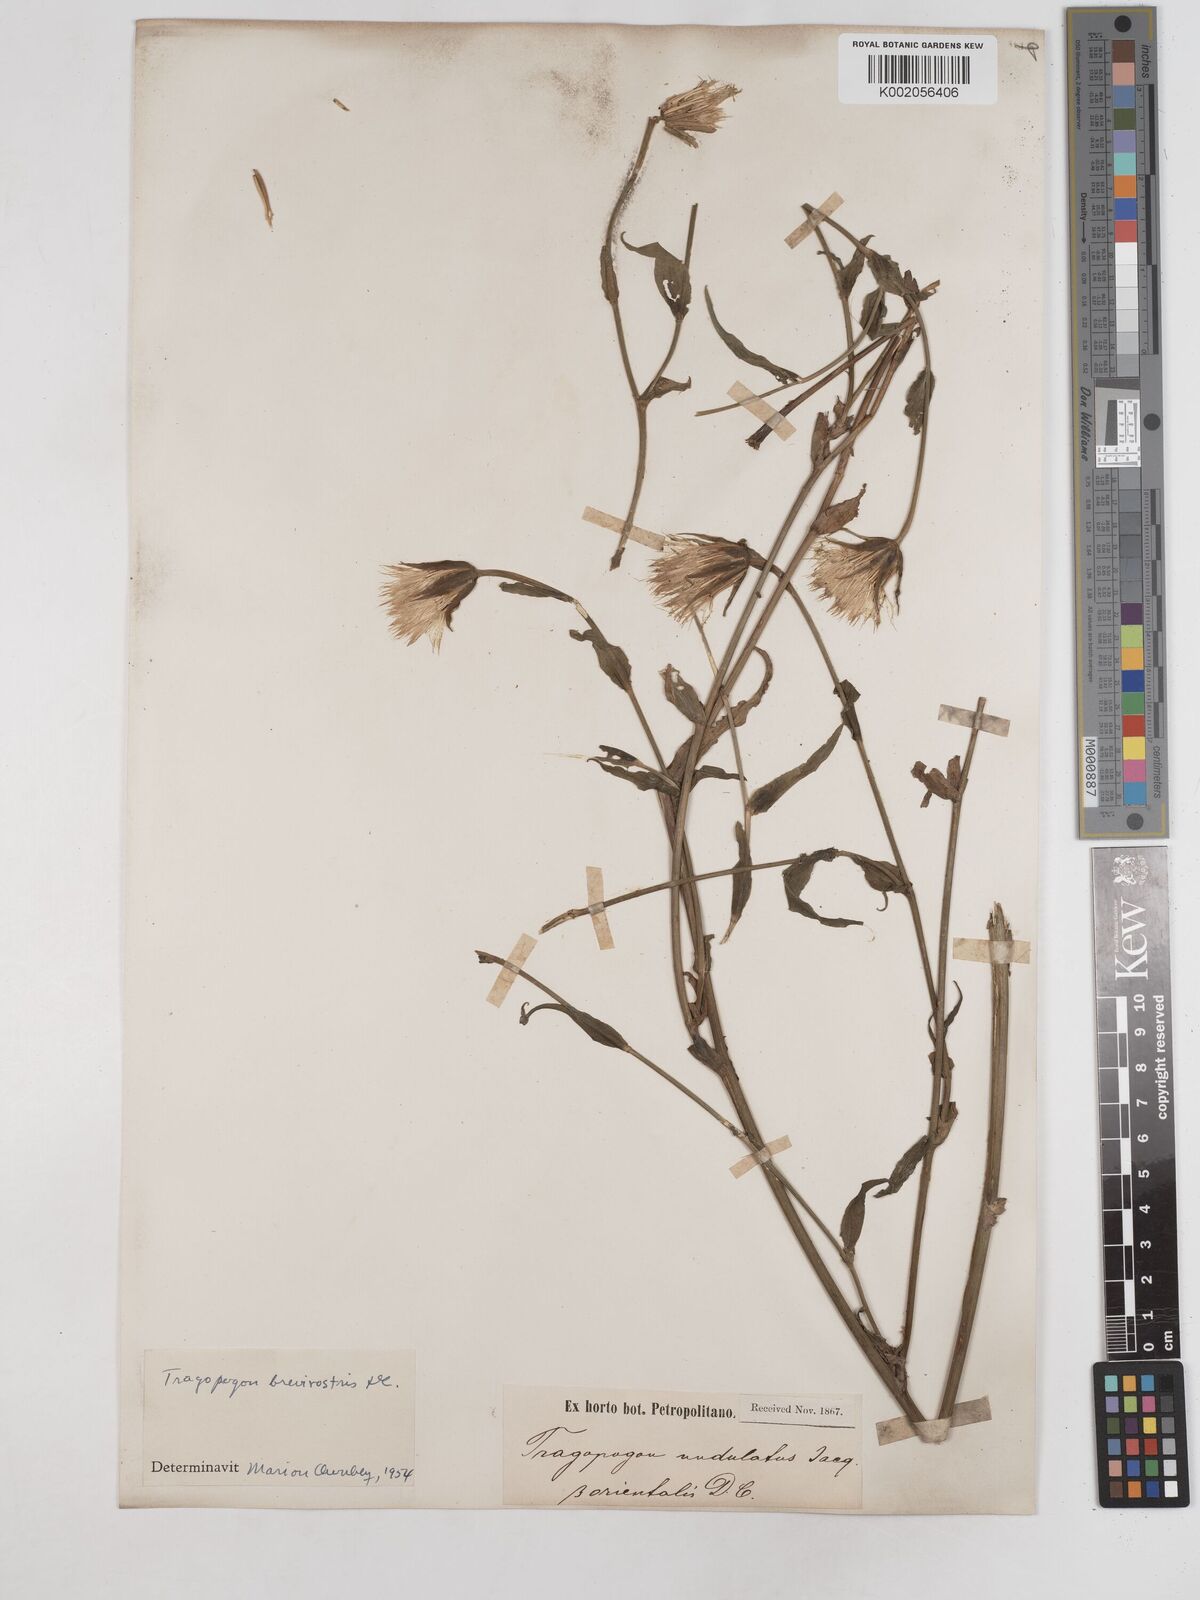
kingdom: Plantae
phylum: Tracheophyta
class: Magnoliopsida
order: Asterales
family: Asteraceae
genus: Tragopogon
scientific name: Tragopogon brevirostris
